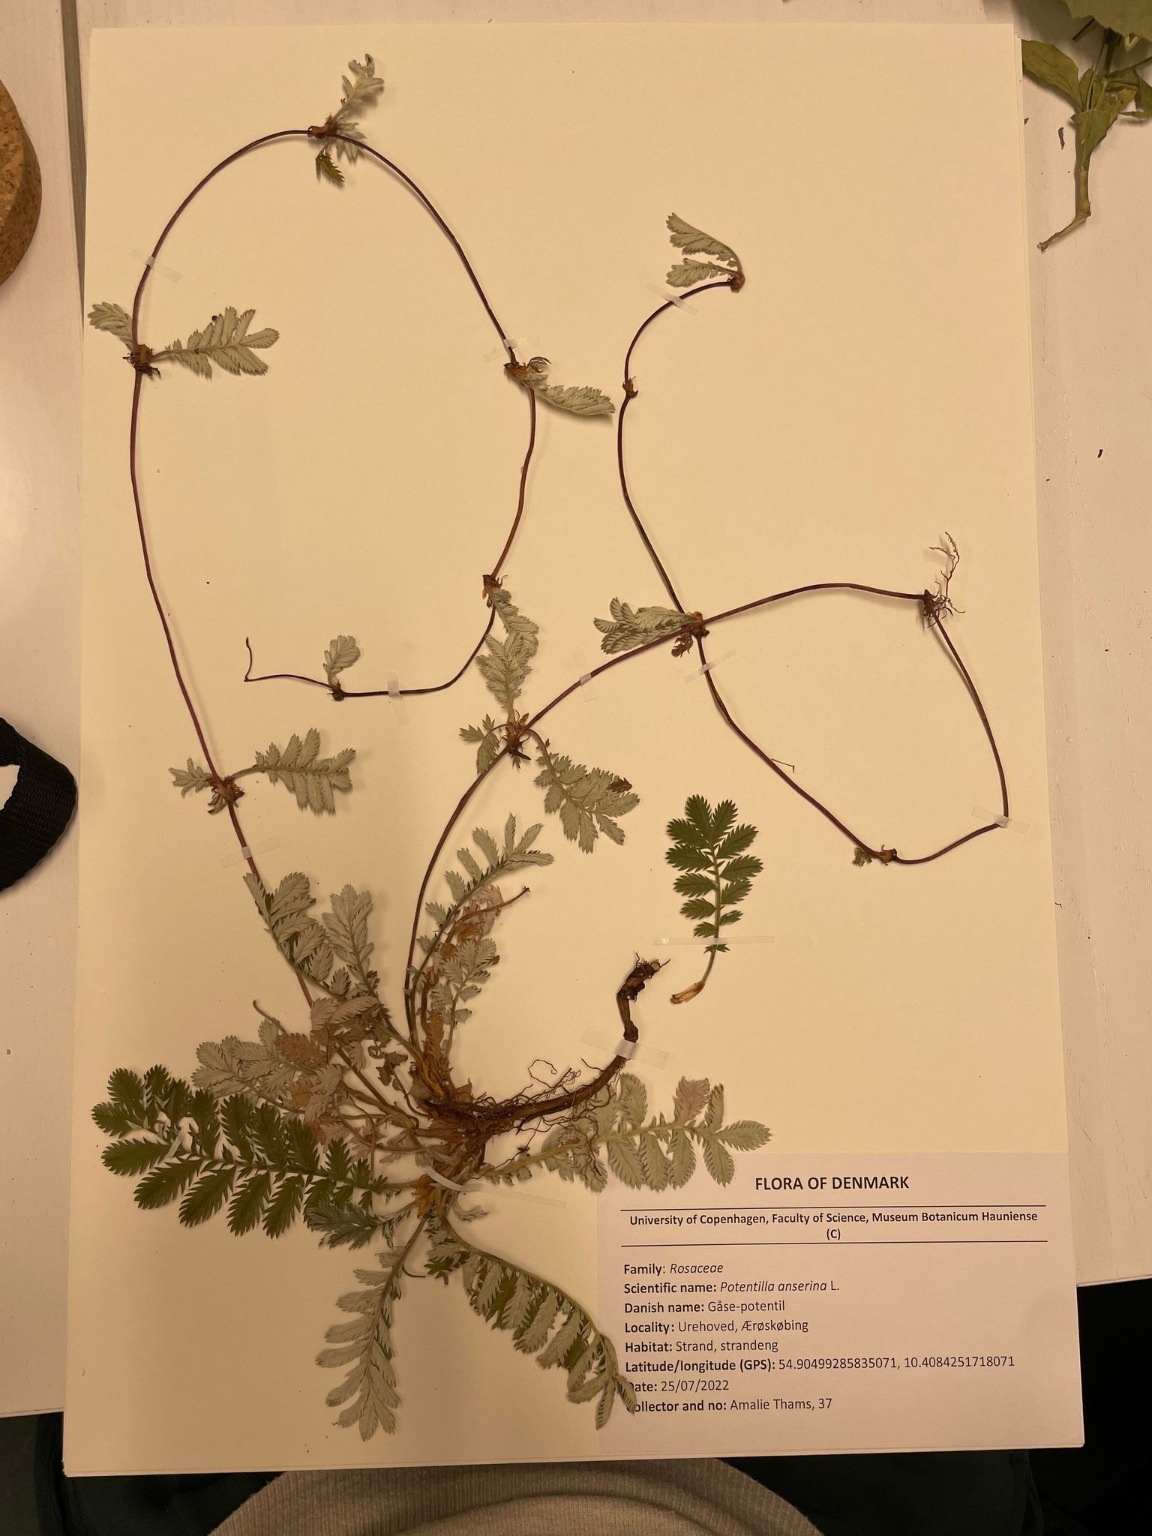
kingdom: Plantae
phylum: Tracheophyta
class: Magnoliopsida
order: Rosales
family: Rosaceae
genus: Argentina
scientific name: Argentina anserina
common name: Gåsepotentil
